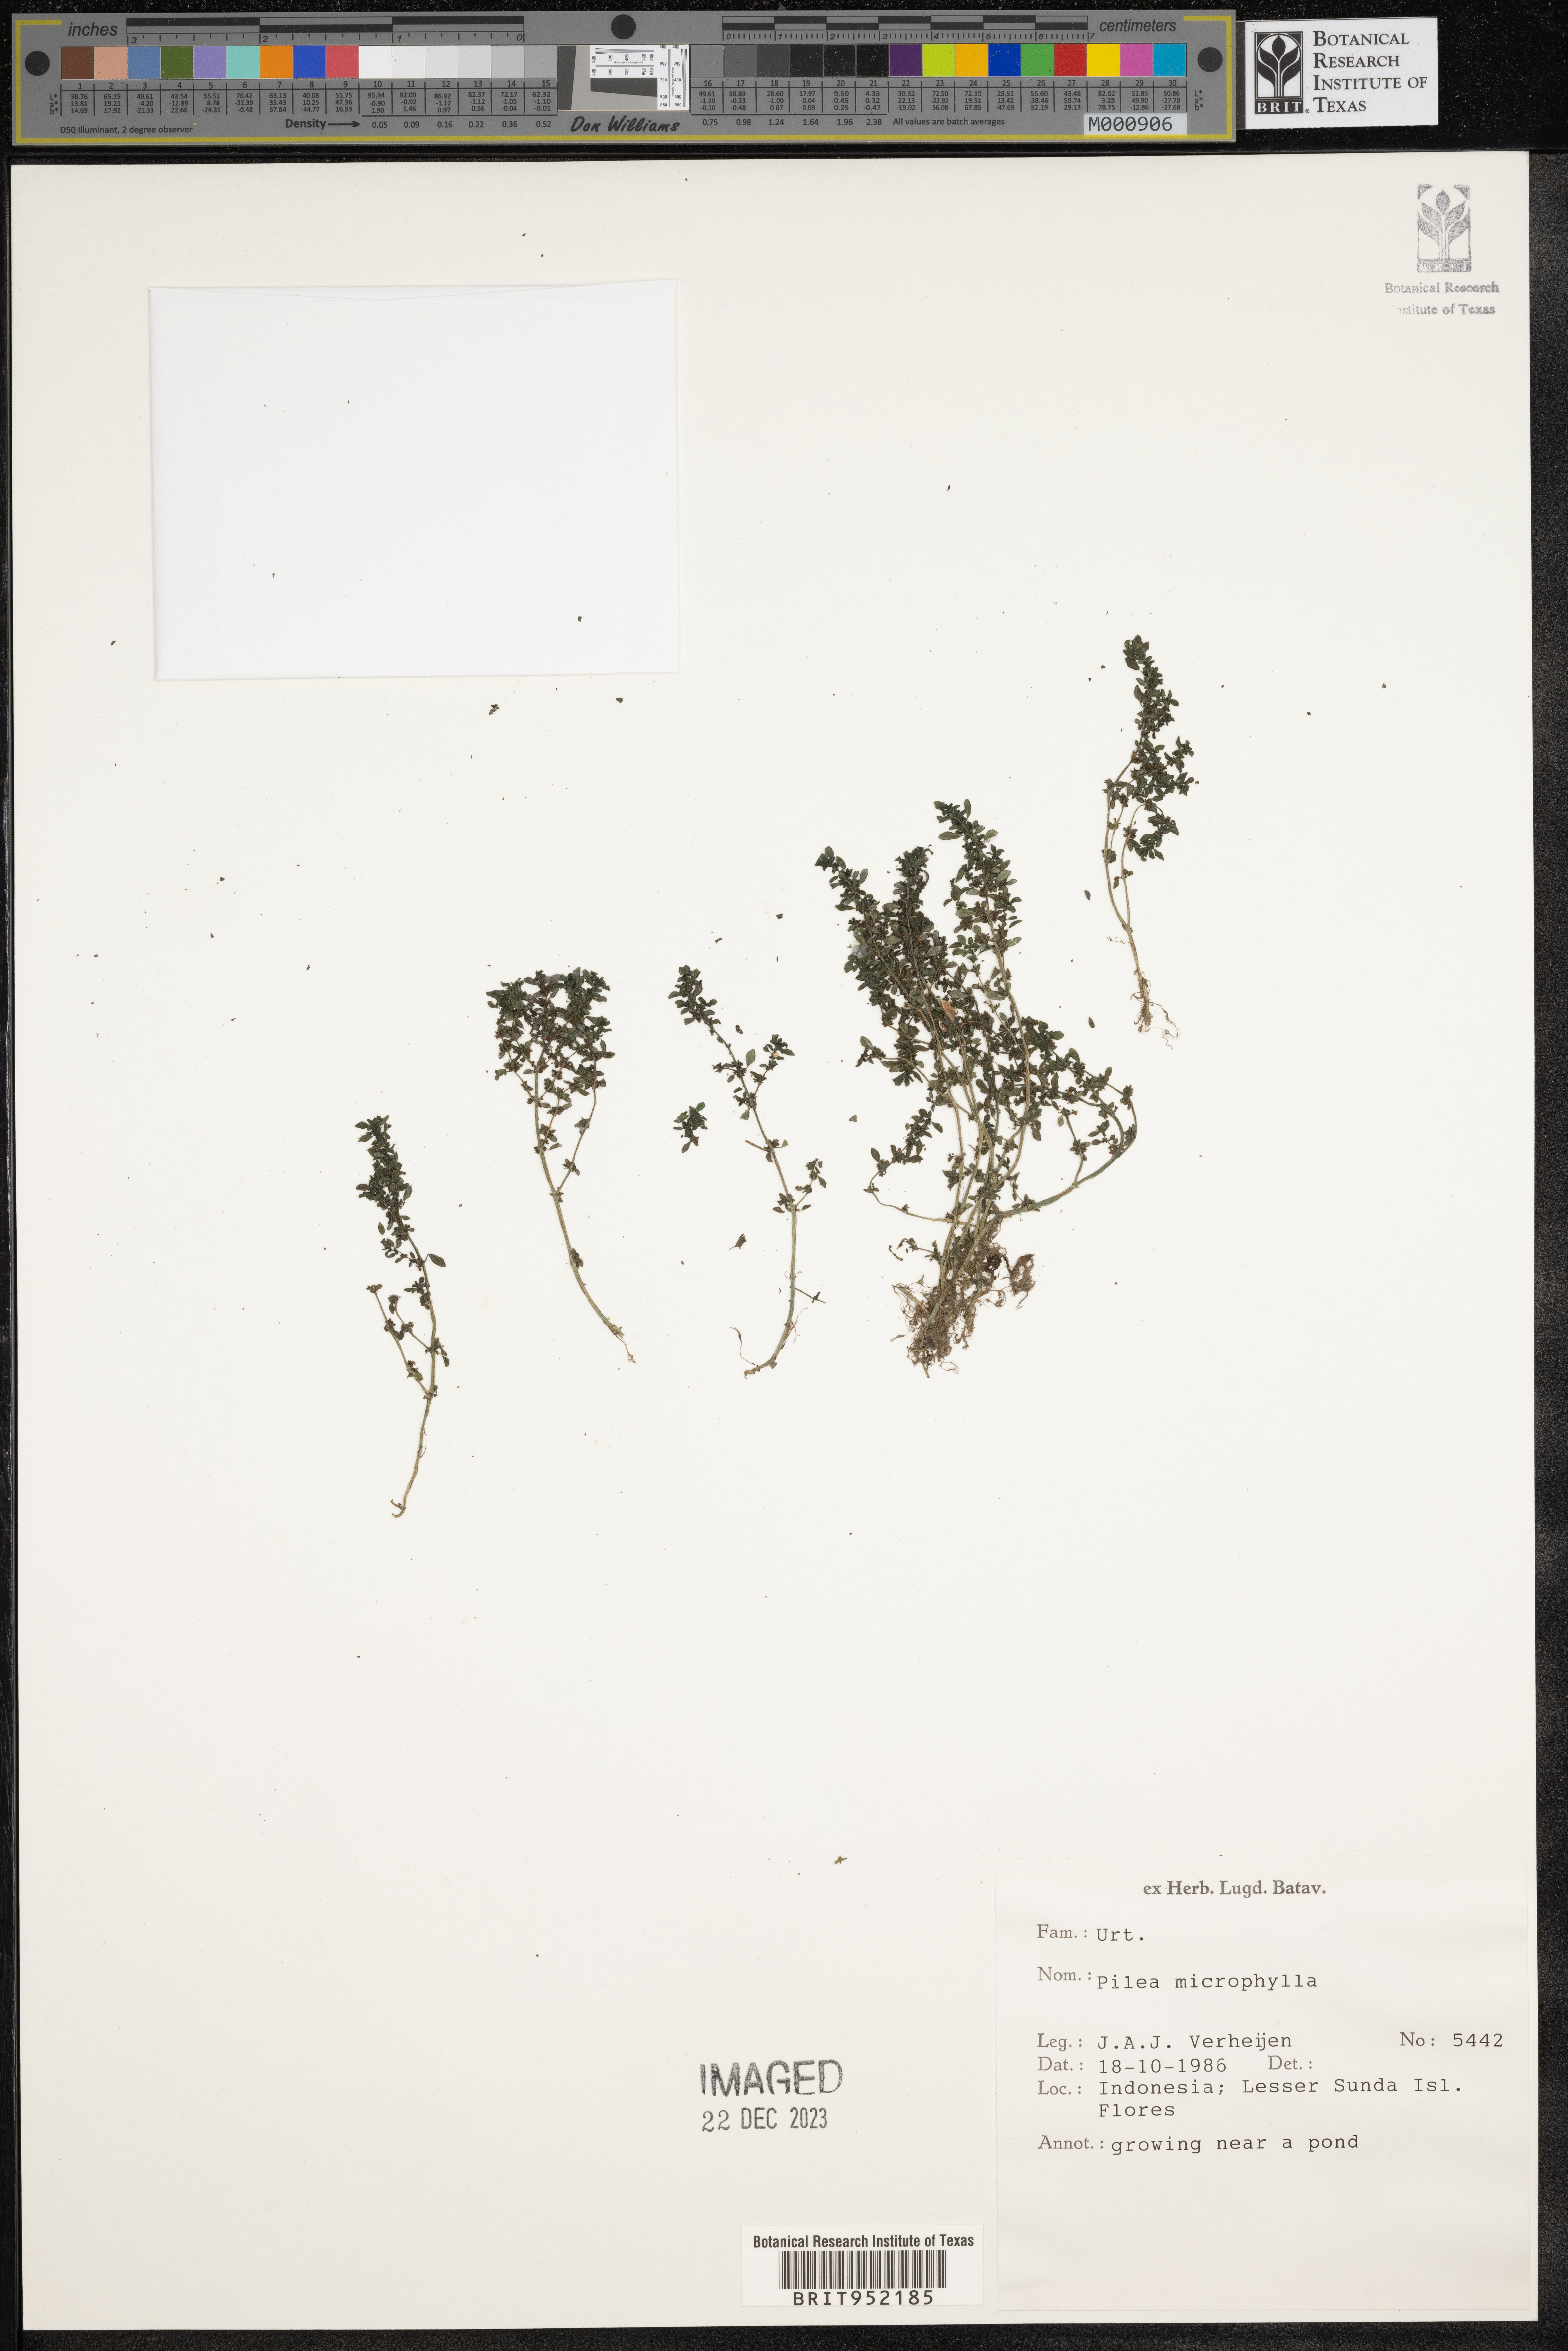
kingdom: Plantae
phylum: Tracheophyta
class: Magnoliopsida
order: Rosales
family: Urticaceae
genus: Pilea
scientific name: Pilea
